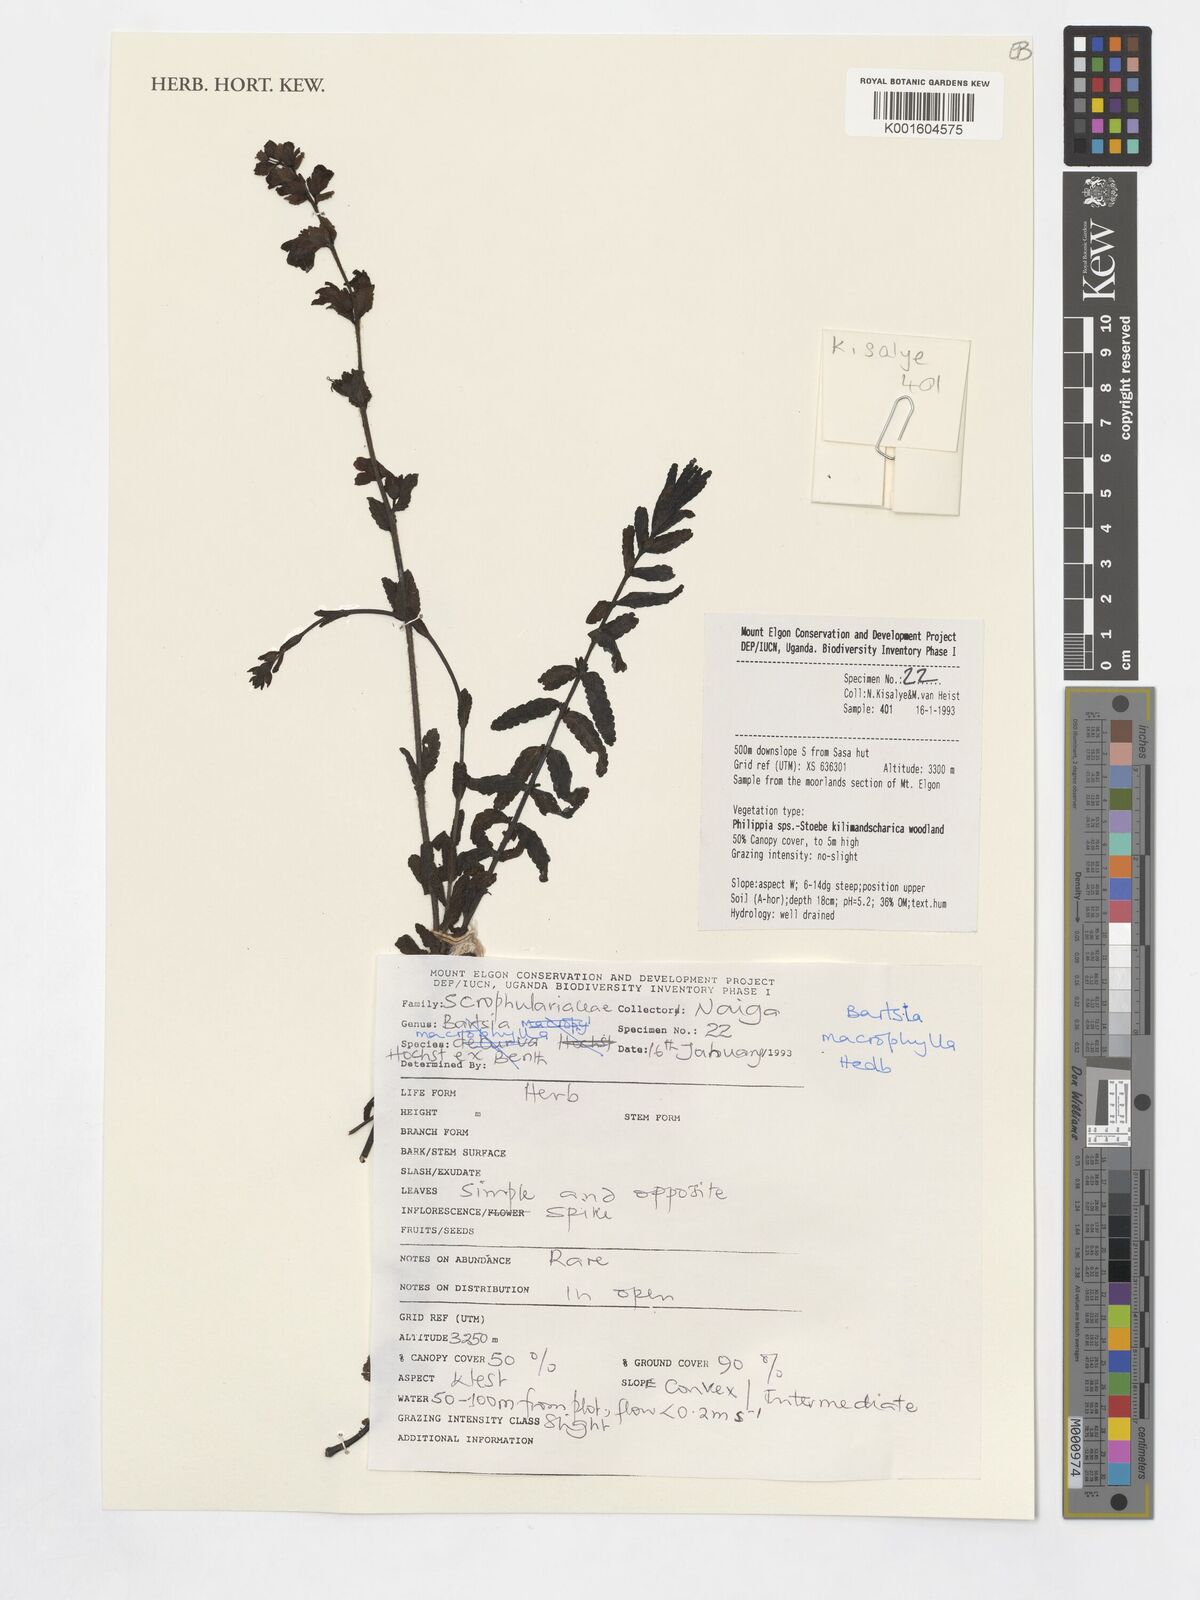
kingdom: Plantae
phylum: Tracheophyta
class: Magnoliopsida
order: Lamiales
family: Orobanchaceae
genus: Hedbergia
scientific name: Hedbergia longiflora
